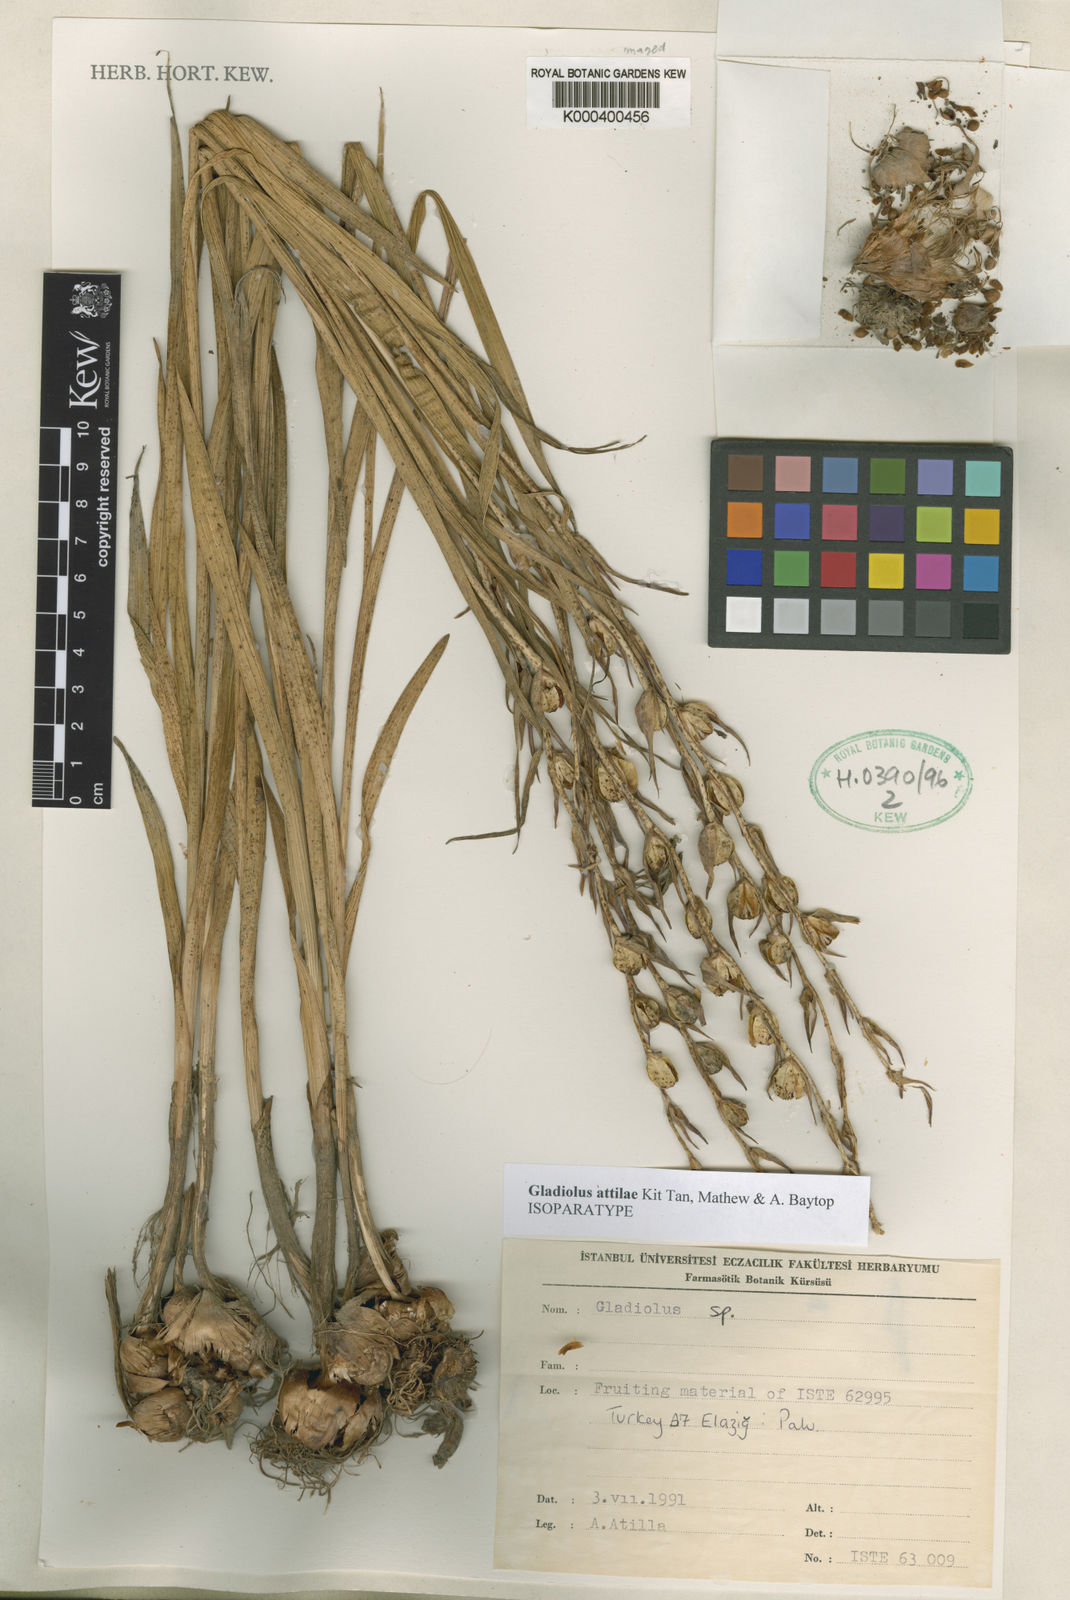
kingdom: Plantae
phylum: Tracheophyta
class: Liliopsida
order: Asparagales
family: Iridaceae
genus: Gladiolus
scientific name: Gladiolus antakiensis
